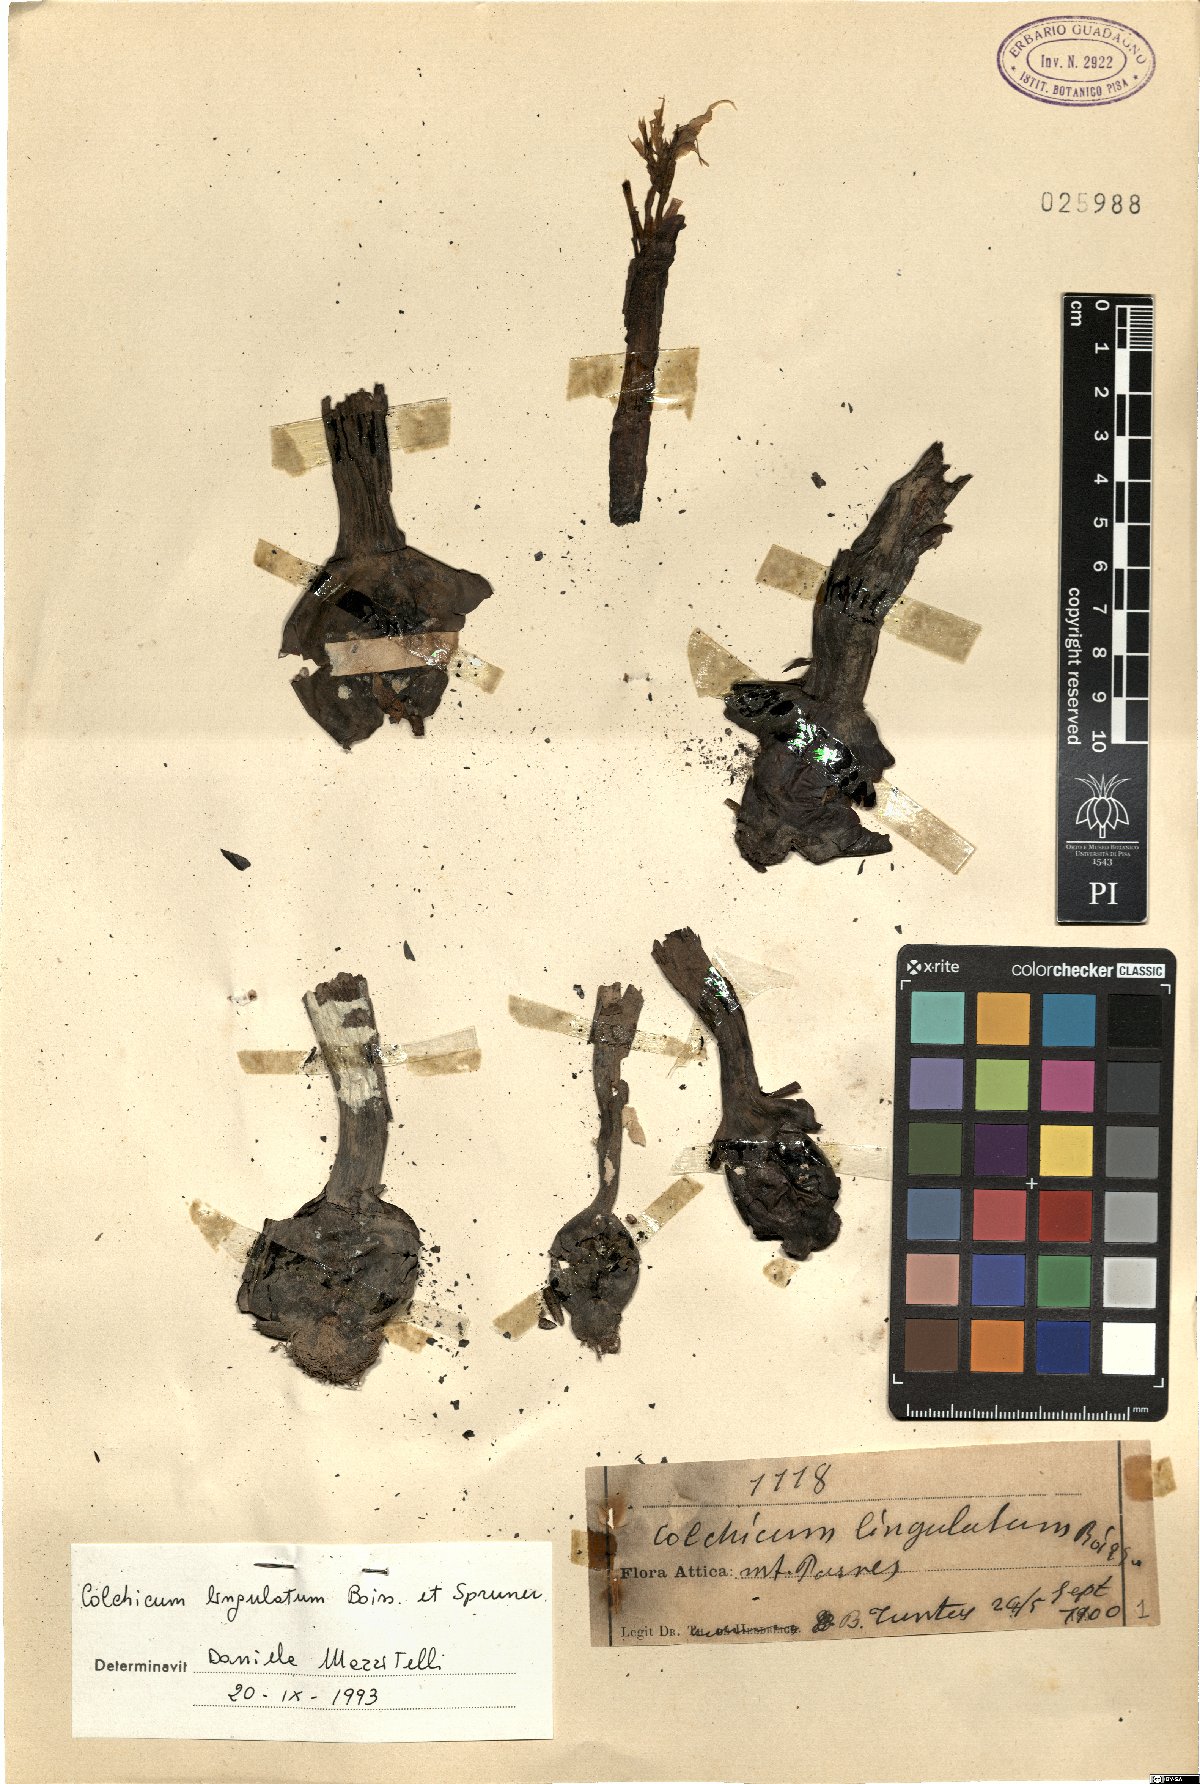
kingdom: Plantae
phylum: Tracheophyta
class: Liliopsida
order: Liliales
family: Colchicaceae
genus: Colchicum
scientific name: Colchicum lingulatum
